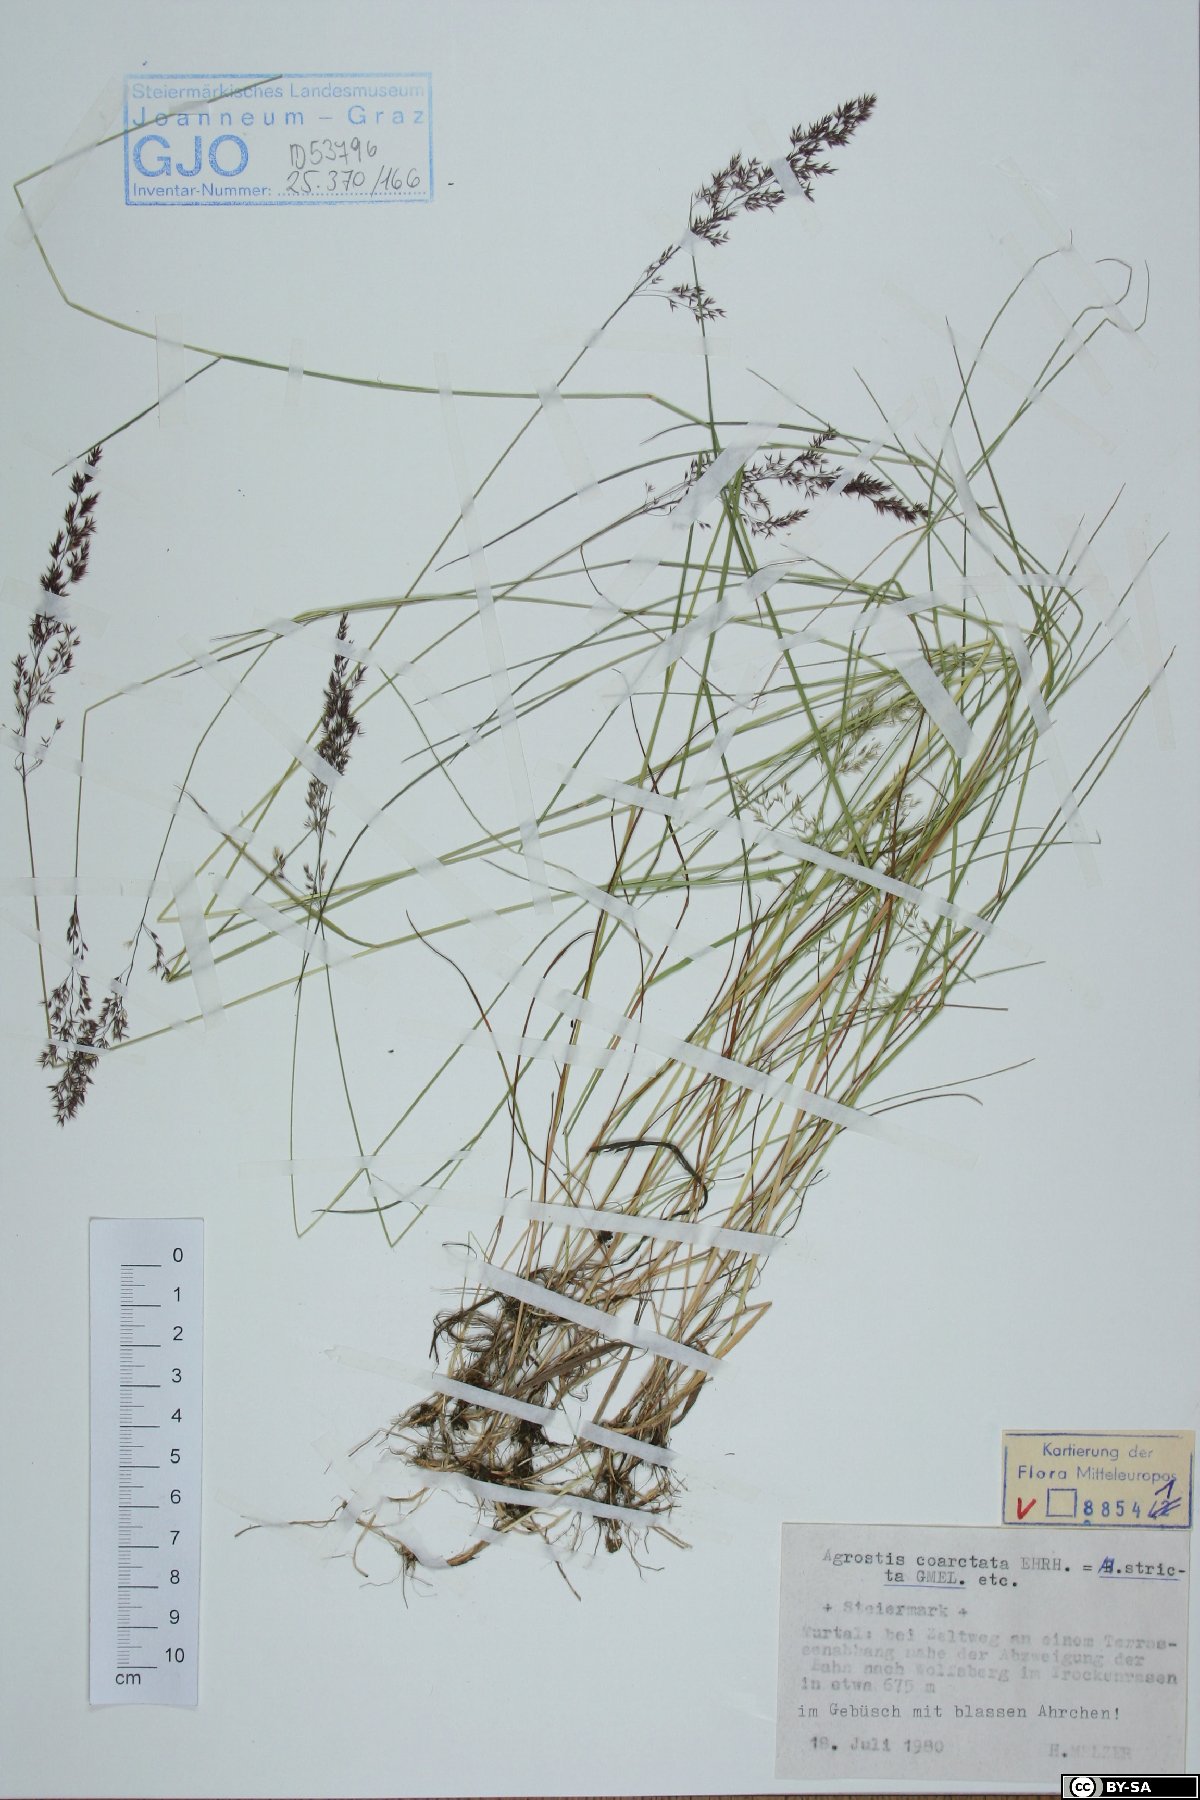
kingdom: Plantae
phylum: Tracheophyta
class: Liliopsida
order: Poales
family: Poaceae
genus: Agrostis
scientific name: Agrostis vinealis
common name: Brown bent
